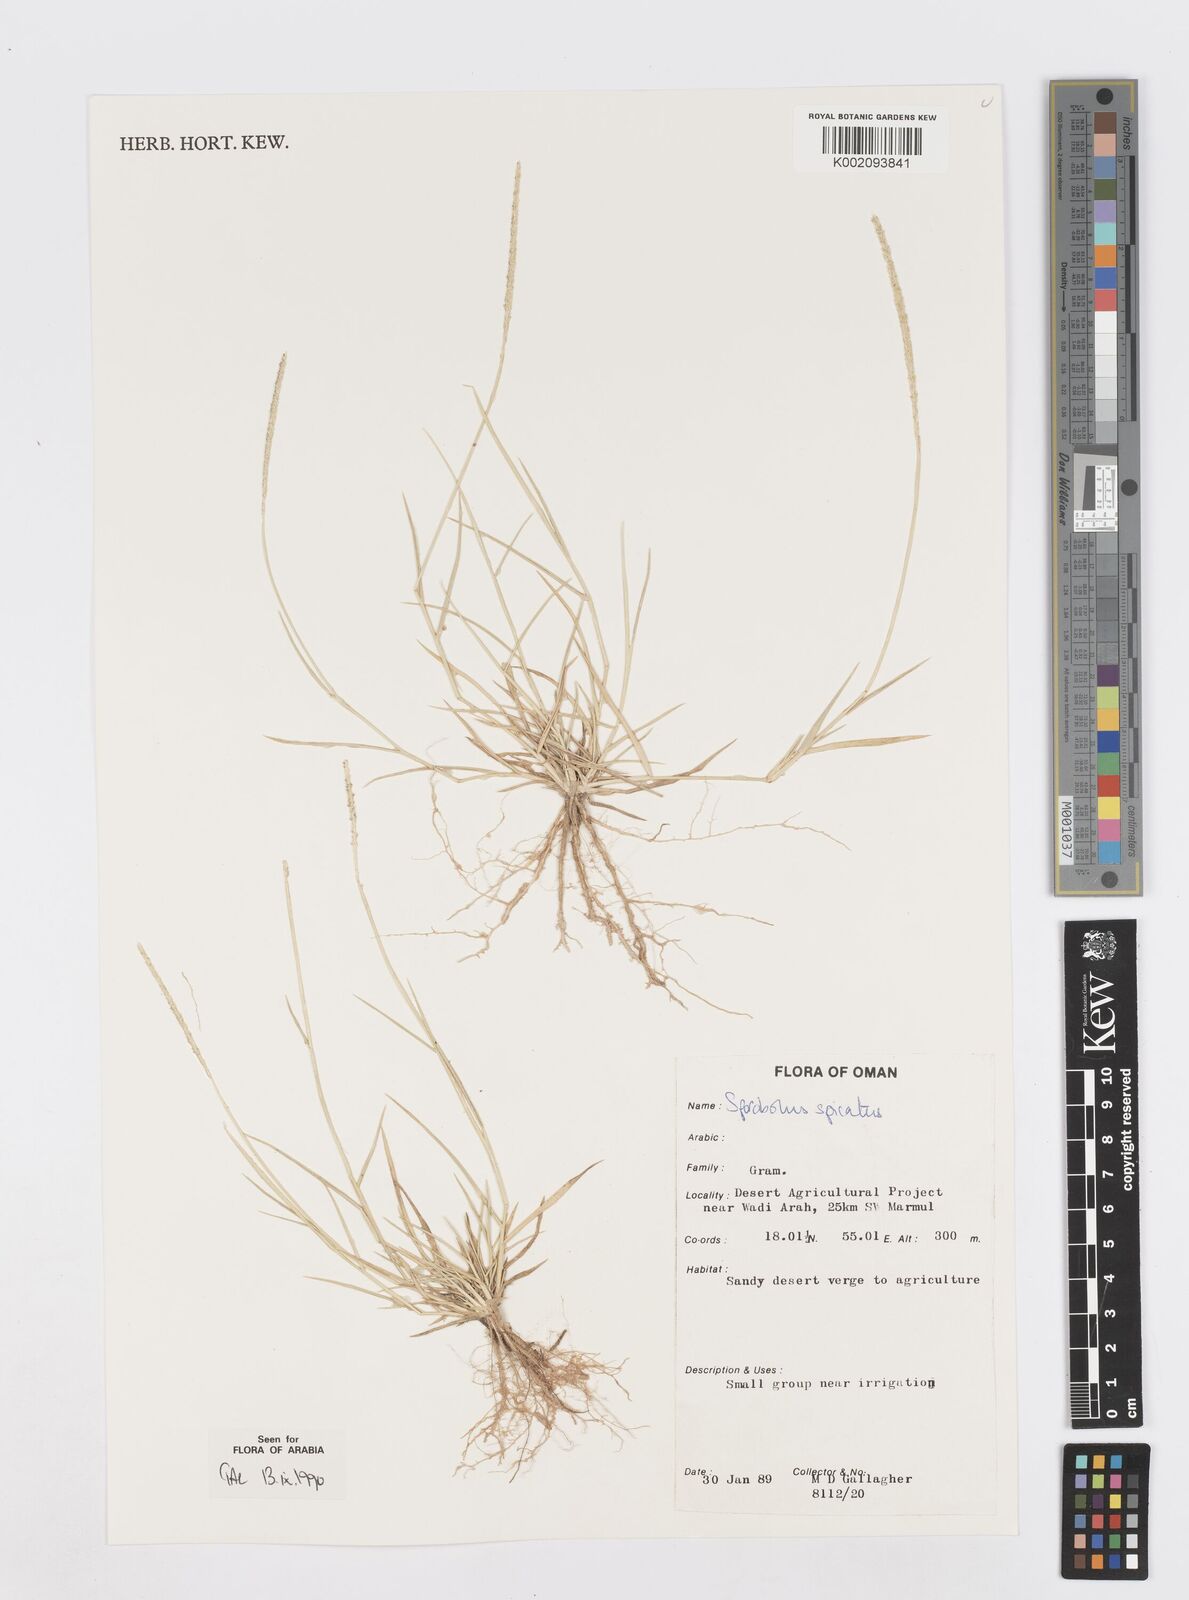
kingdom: Plantae
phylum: Tracheophyta
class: Liliopsida
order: Poales
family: Poaceae
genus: Sporobolus
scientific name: Sporobolus spicatus
